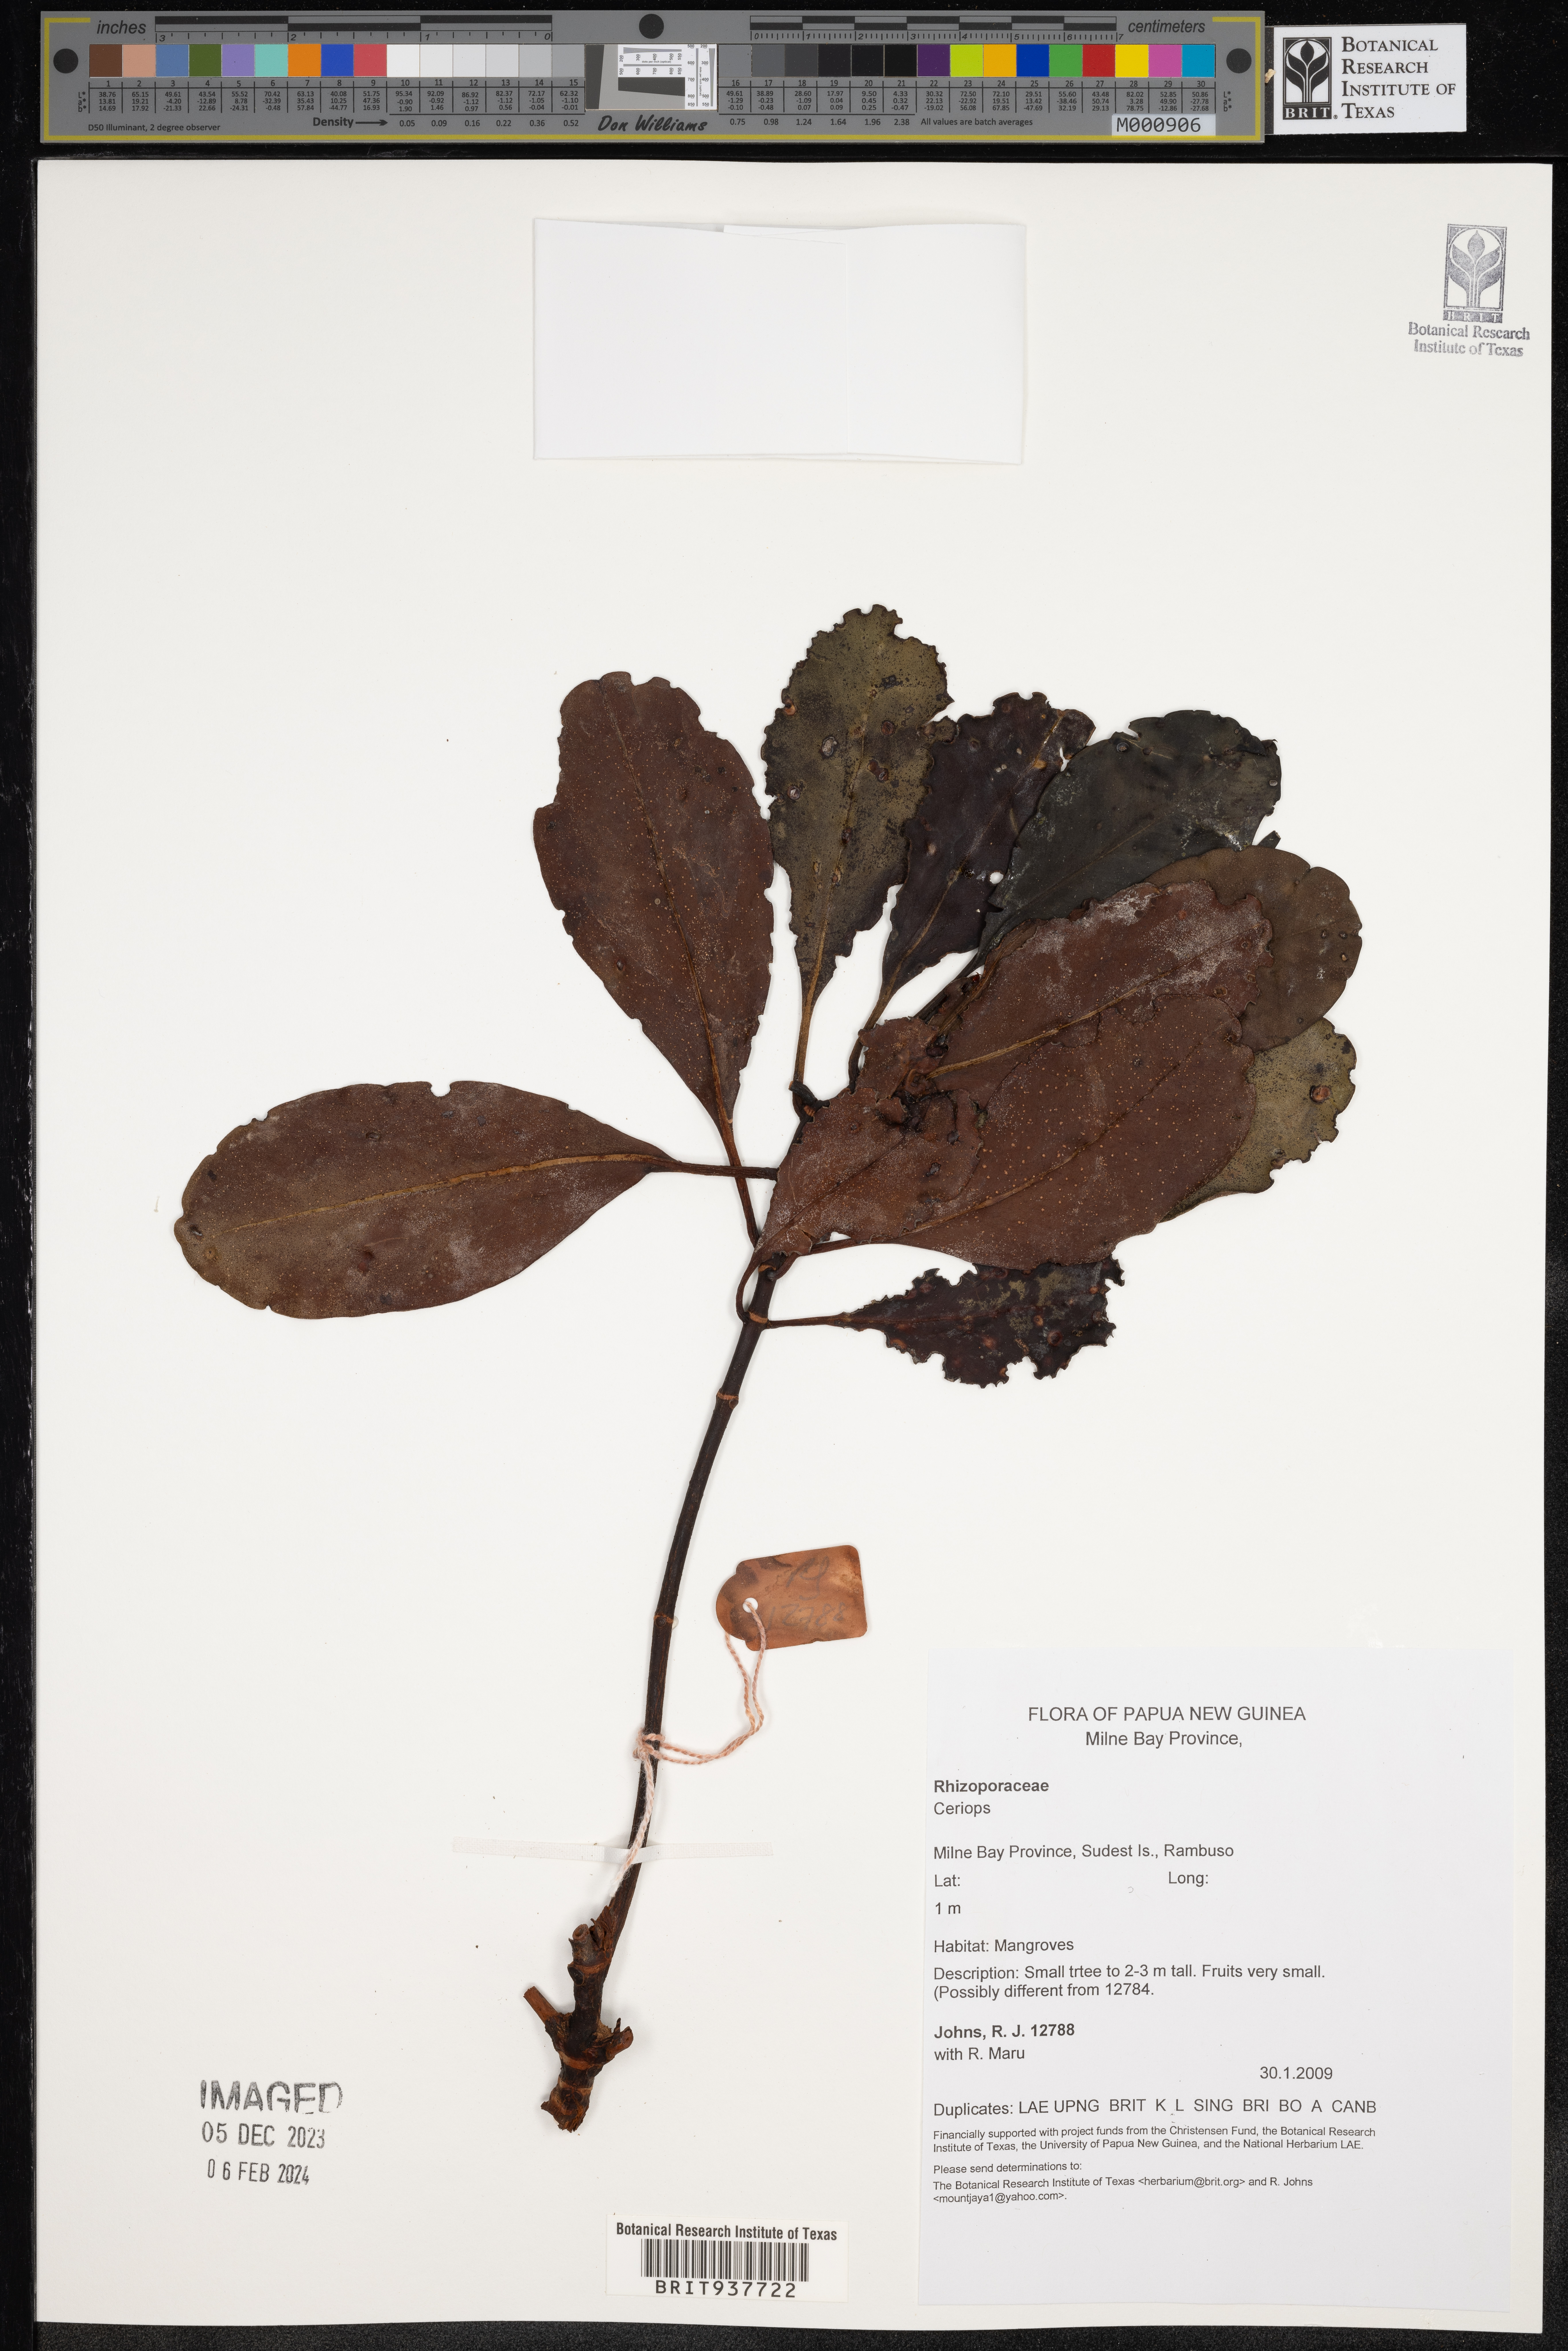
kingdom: Plantae
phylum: Tracheophyta
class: Magnoliopsida
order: Malpighiales
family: Rhizophoraceae
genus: Ceriops
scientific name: Ceriops
